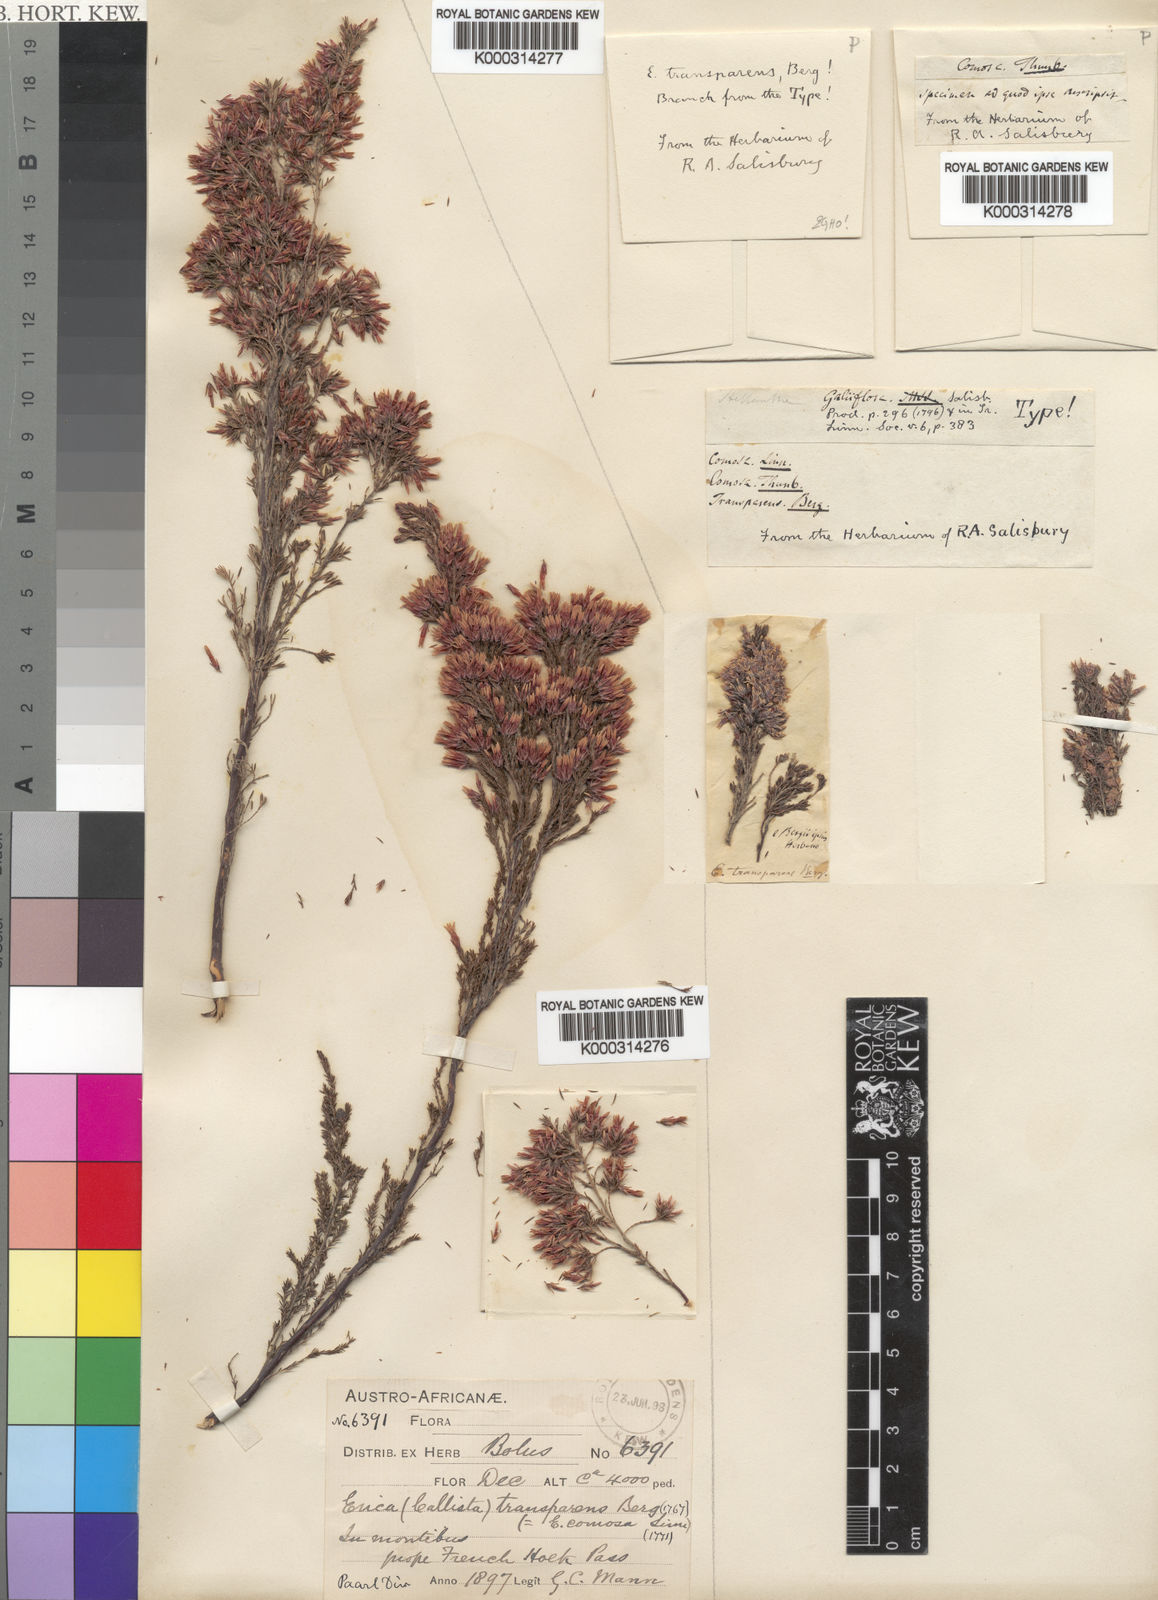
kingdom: Plantae
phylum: Tracheophyta
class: Magnoliopsida
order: Ericales
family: Ericaceae
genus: Erica
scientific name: Erica diaphana
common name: Heath
